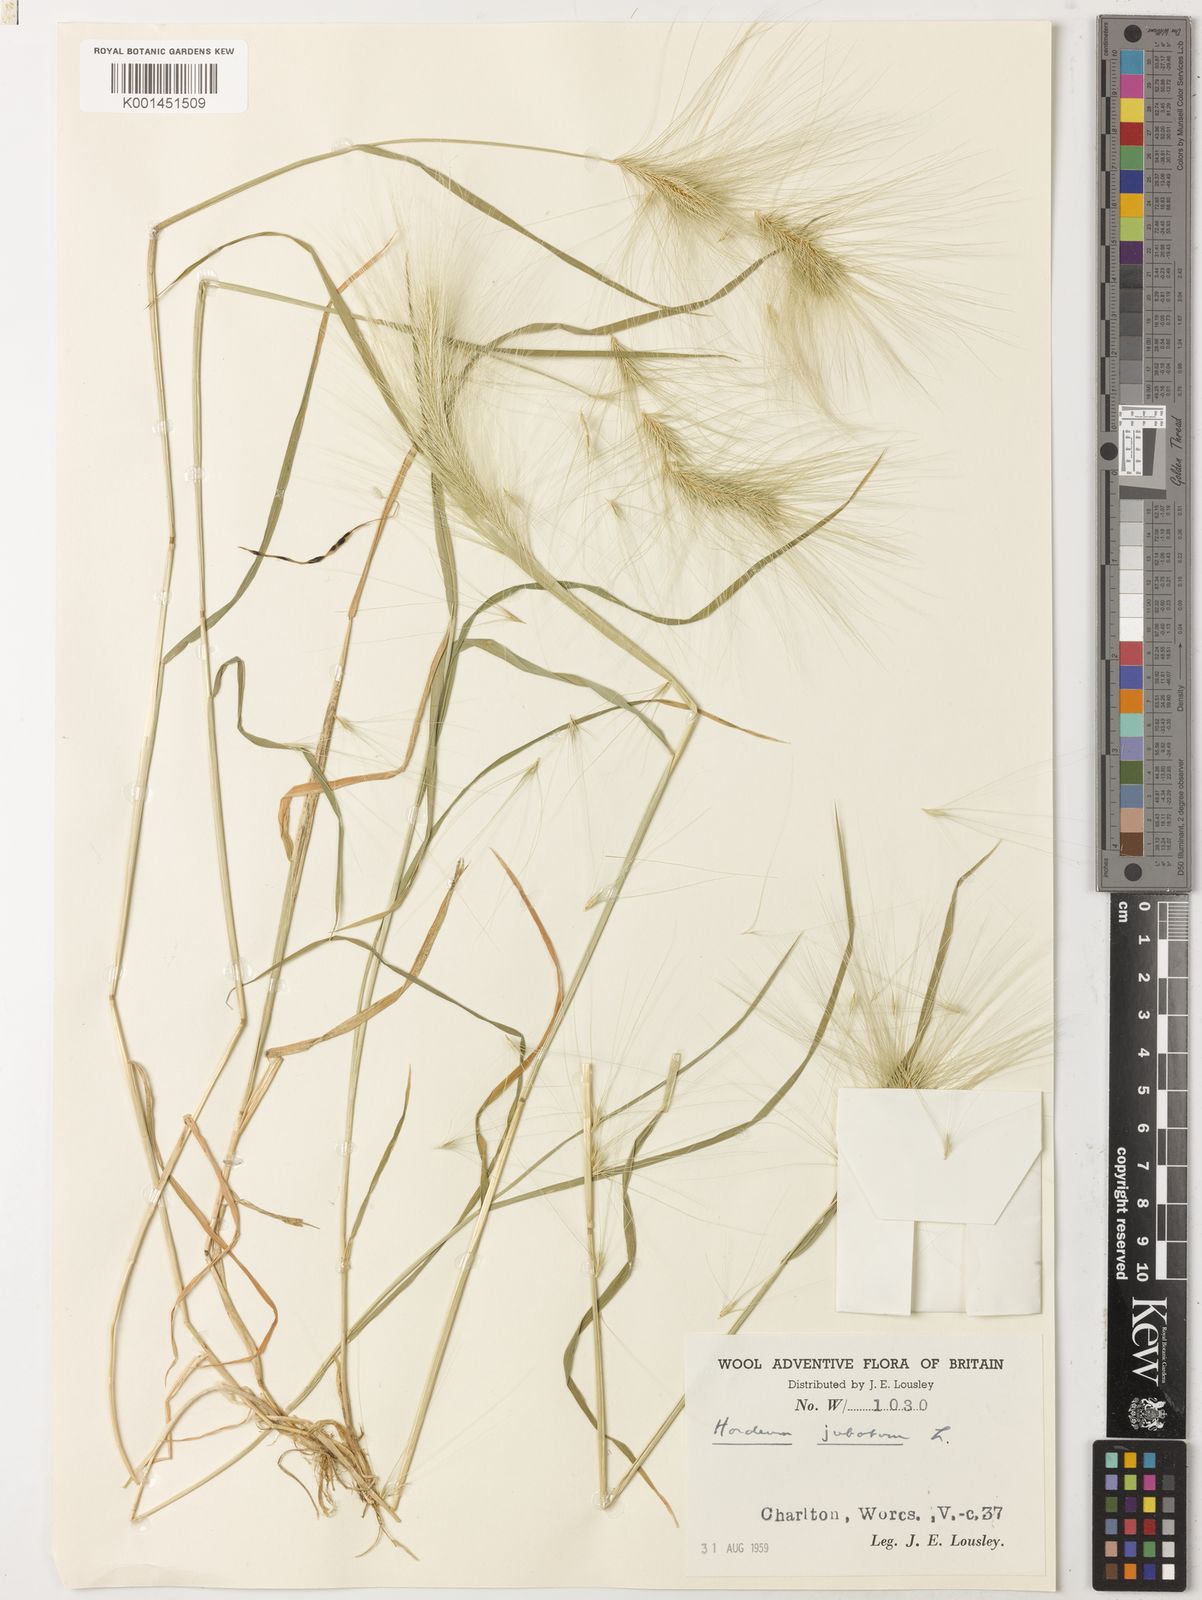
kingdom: Plantae
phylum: Tracheophyta
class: Liliopsida
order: Poales
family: Poaceae
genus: Hordeum
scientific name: Hordeum jubatum
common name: Foxtail barley
